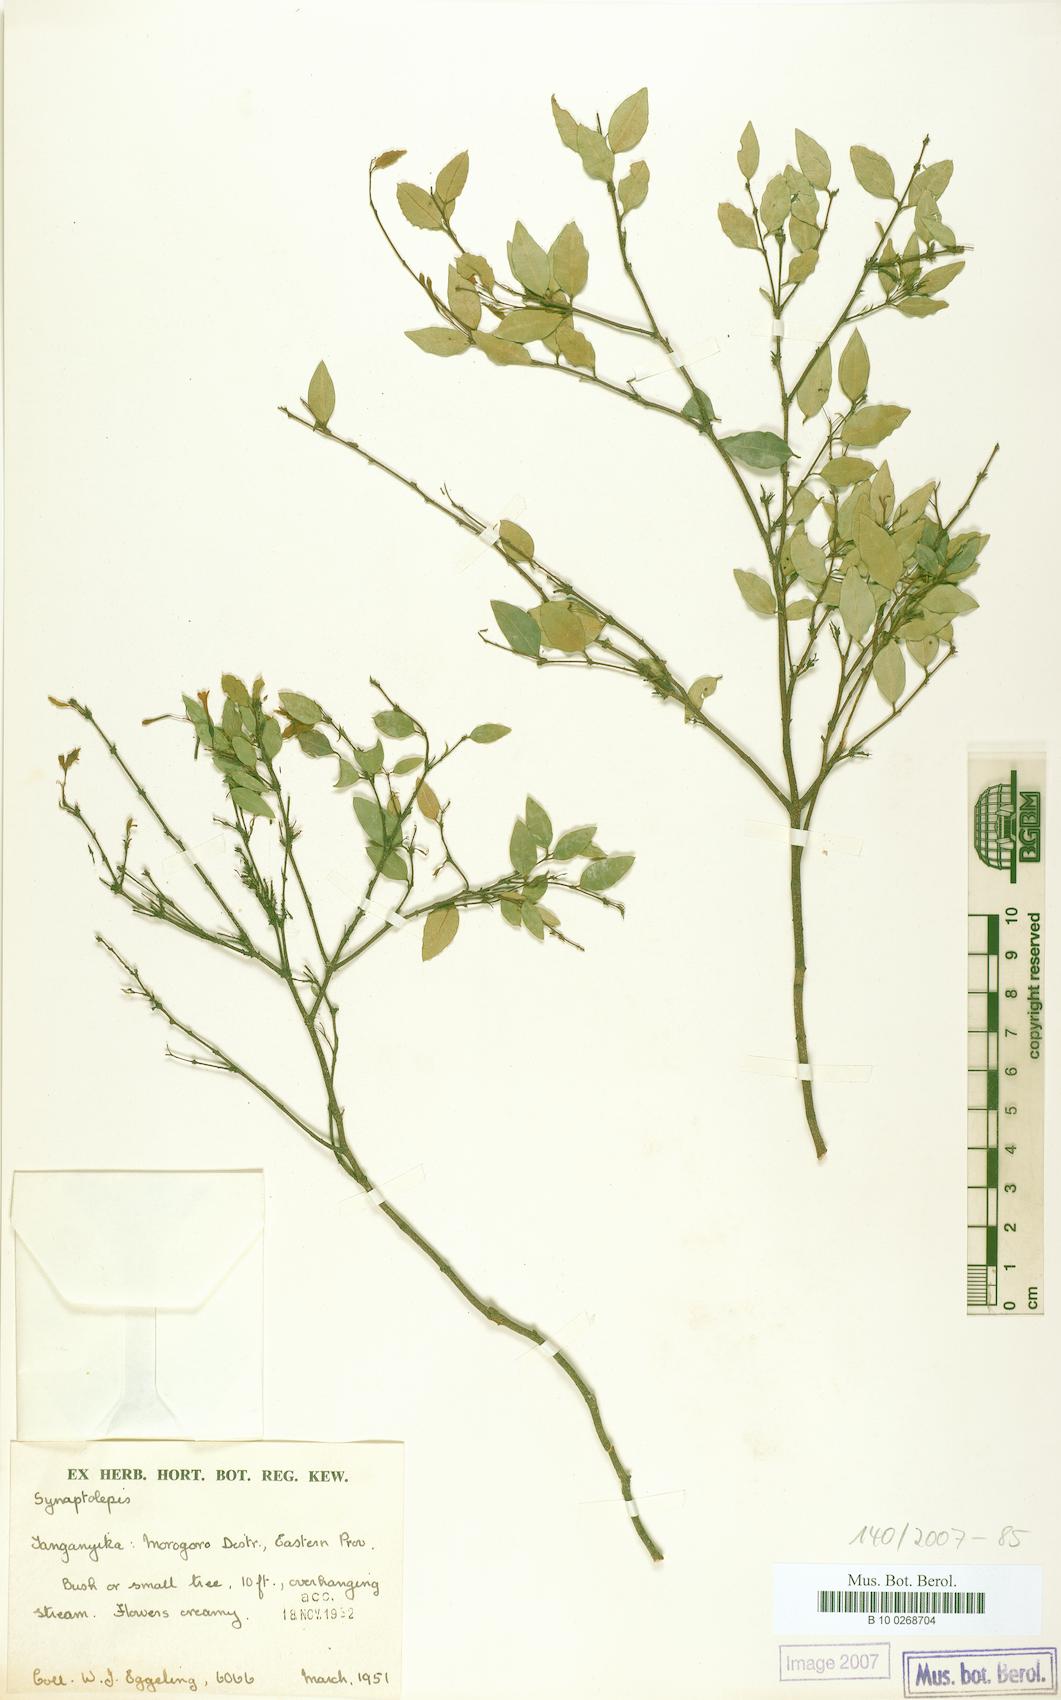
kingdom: Plantae
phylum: Tracheophyta
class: Magnoliopsida
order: Malvales
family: Thymelaeaceae
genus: Synaptolepis
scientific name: Synaptolepis
